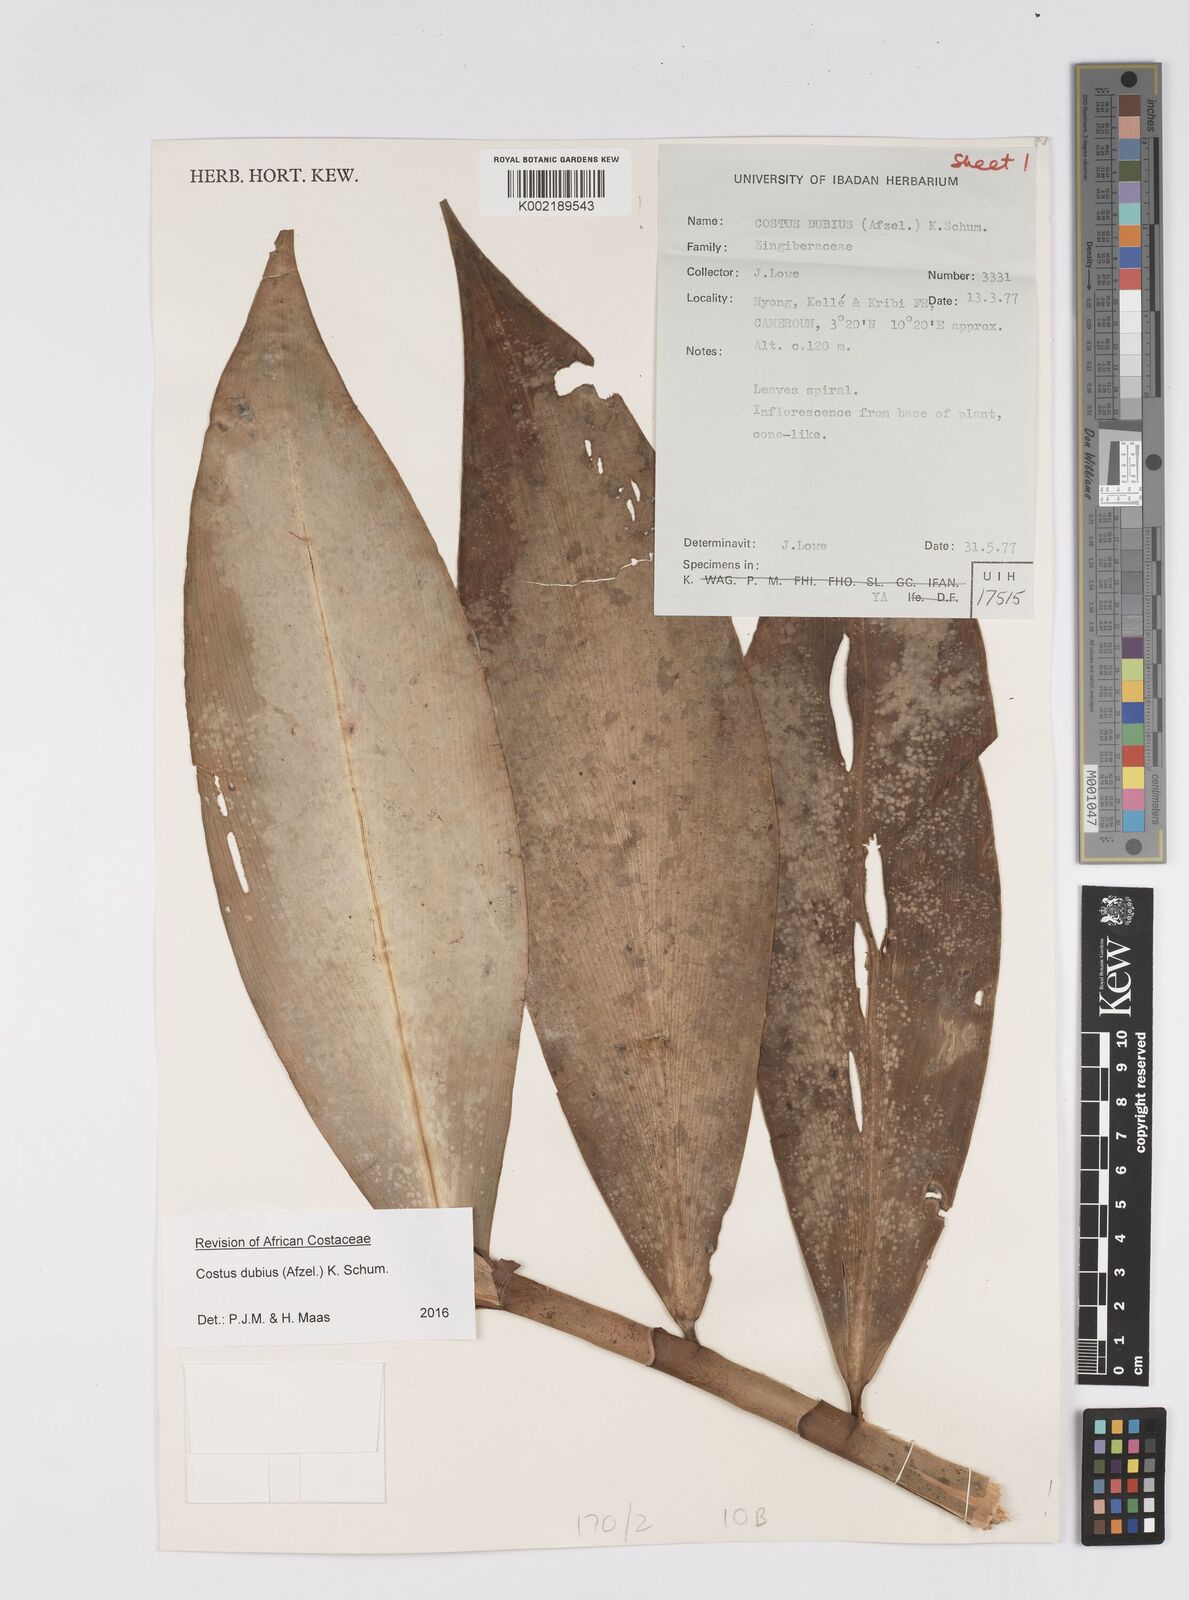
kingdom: Plantae
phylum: Tracheophyta
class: Liliopsida
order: Zingiberales
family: Costaceae
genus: Costus
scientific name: Costus dubius
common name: Costus
